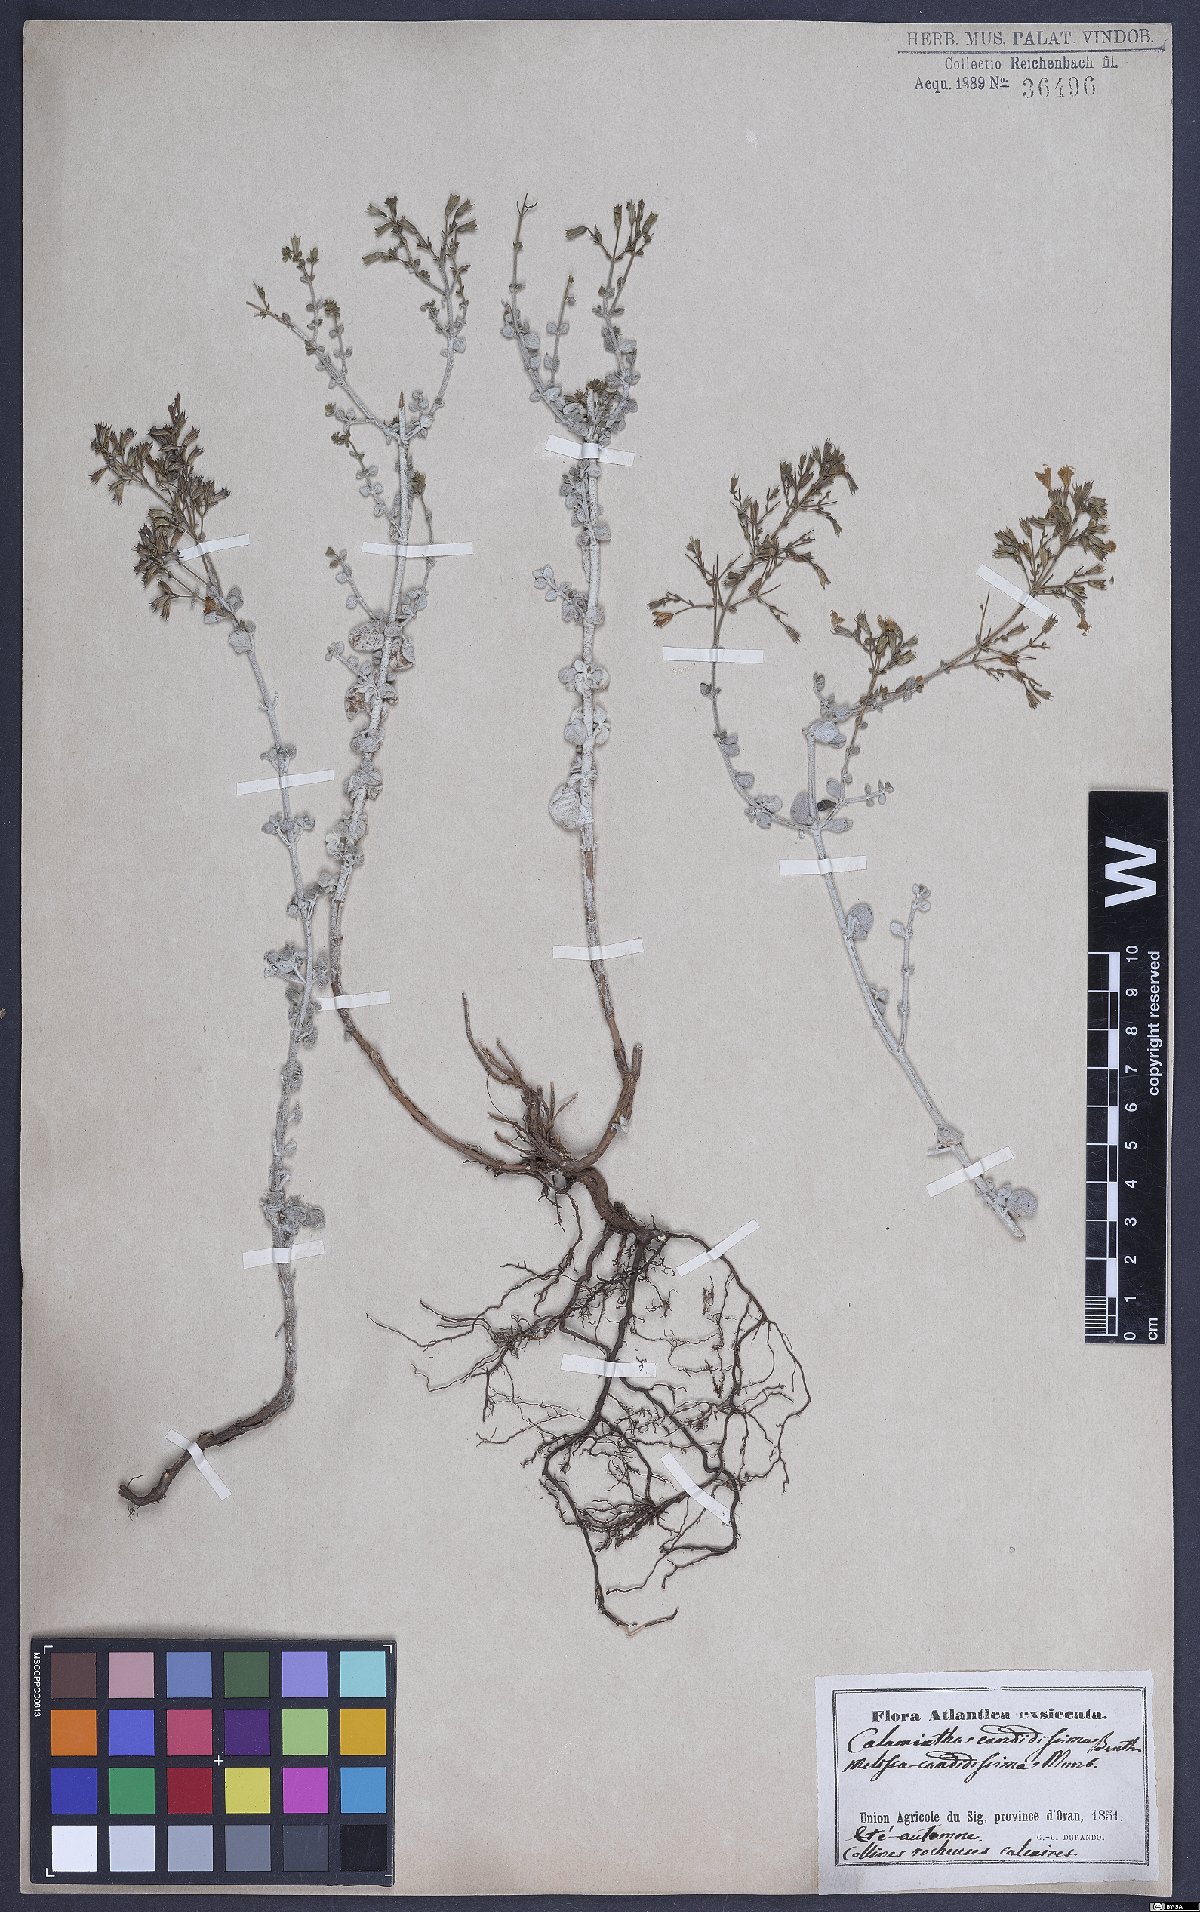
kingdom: Plantae
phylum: Tracheophyta
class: Magnoliopsida
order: Lamiales
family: Lamiaceae
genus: Calamintha
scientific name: Calamintha
